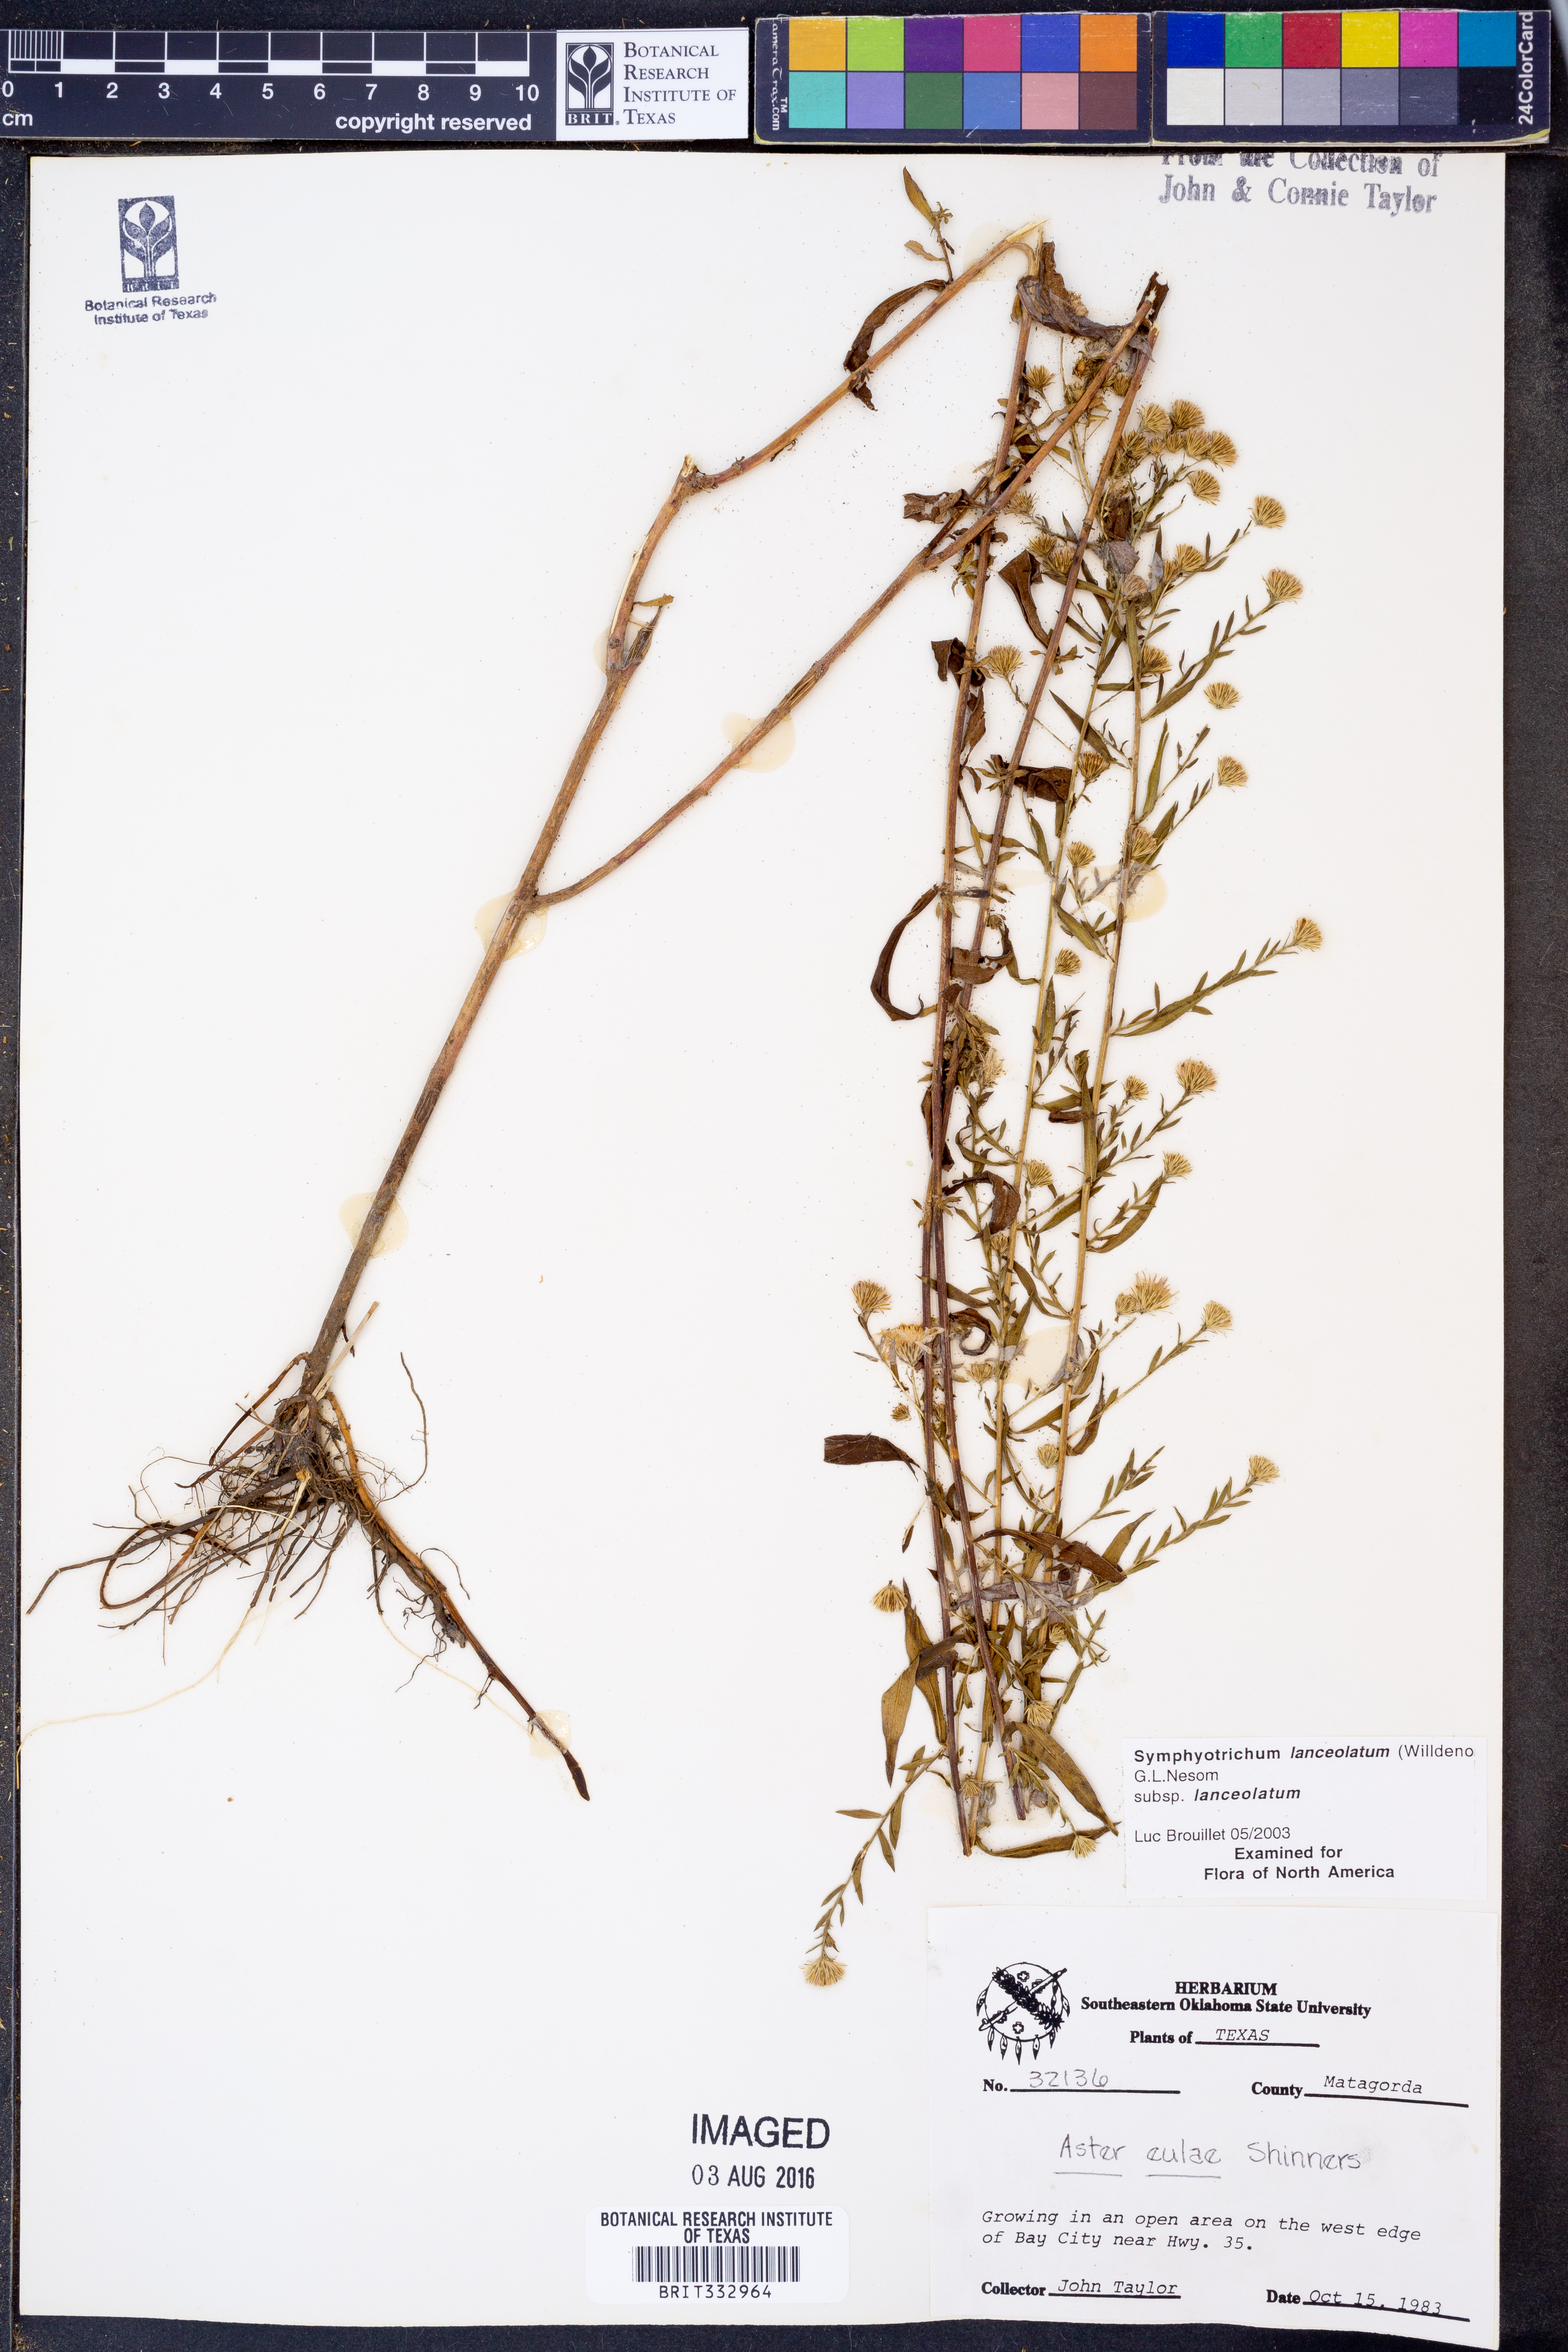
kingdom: Plantae
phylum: Tracheophyta
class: Magnoliopsida
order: Asterales
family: Asteraceae
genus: Symphyotrichum
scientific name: Symphyotrichum lanceolatum
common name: Panicled aster
